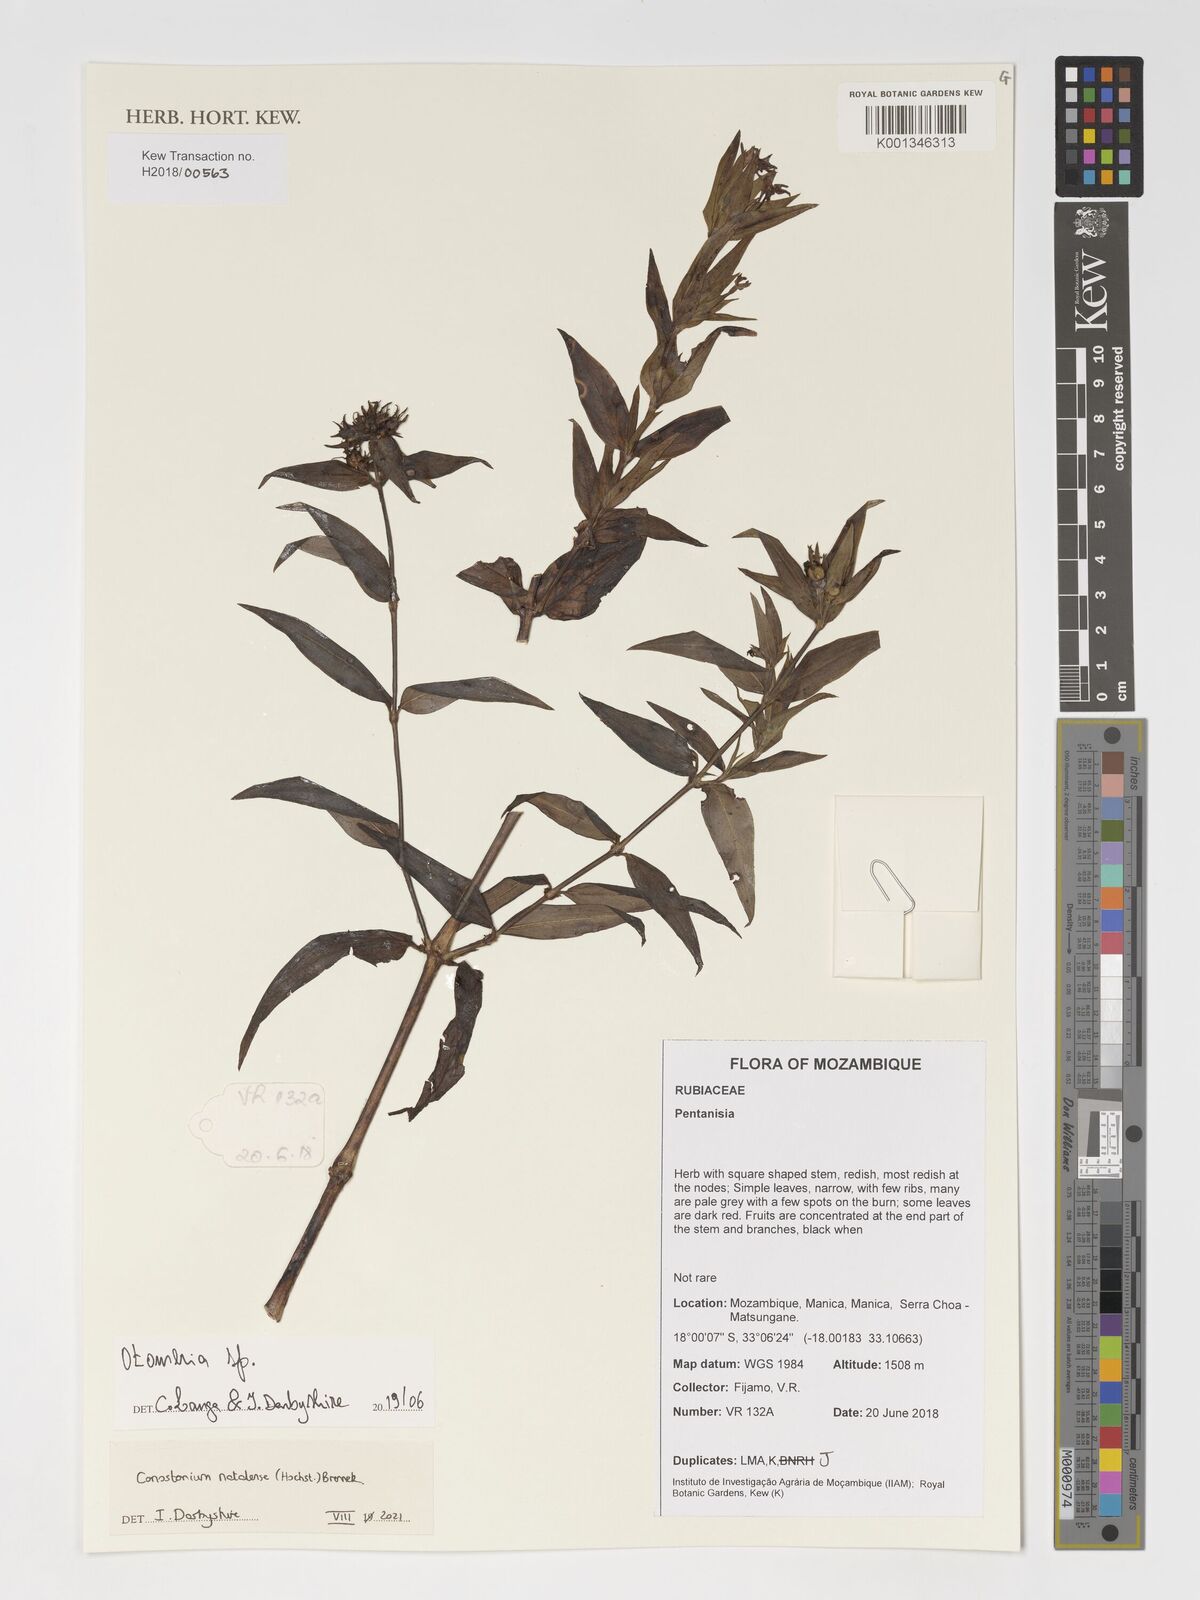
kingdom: Plantae
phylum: Tracheophyta
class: Magnoliopsida
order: Gentianales
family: Rubiaceae
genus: Otomeria
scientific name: Otomeria
